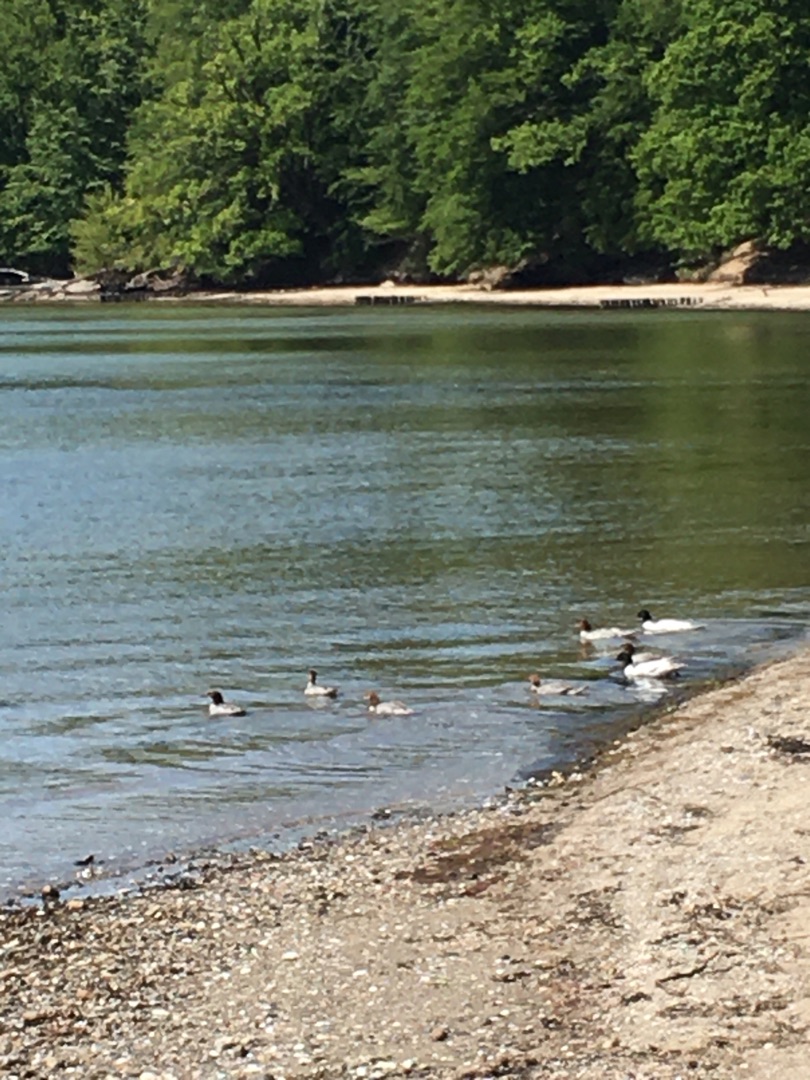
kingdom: Animalia
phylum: Chordata
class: Aves
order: Anseriformes
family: Anatidae
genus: Mergus
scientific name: Mergus merganser
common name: Stor skallesluger
